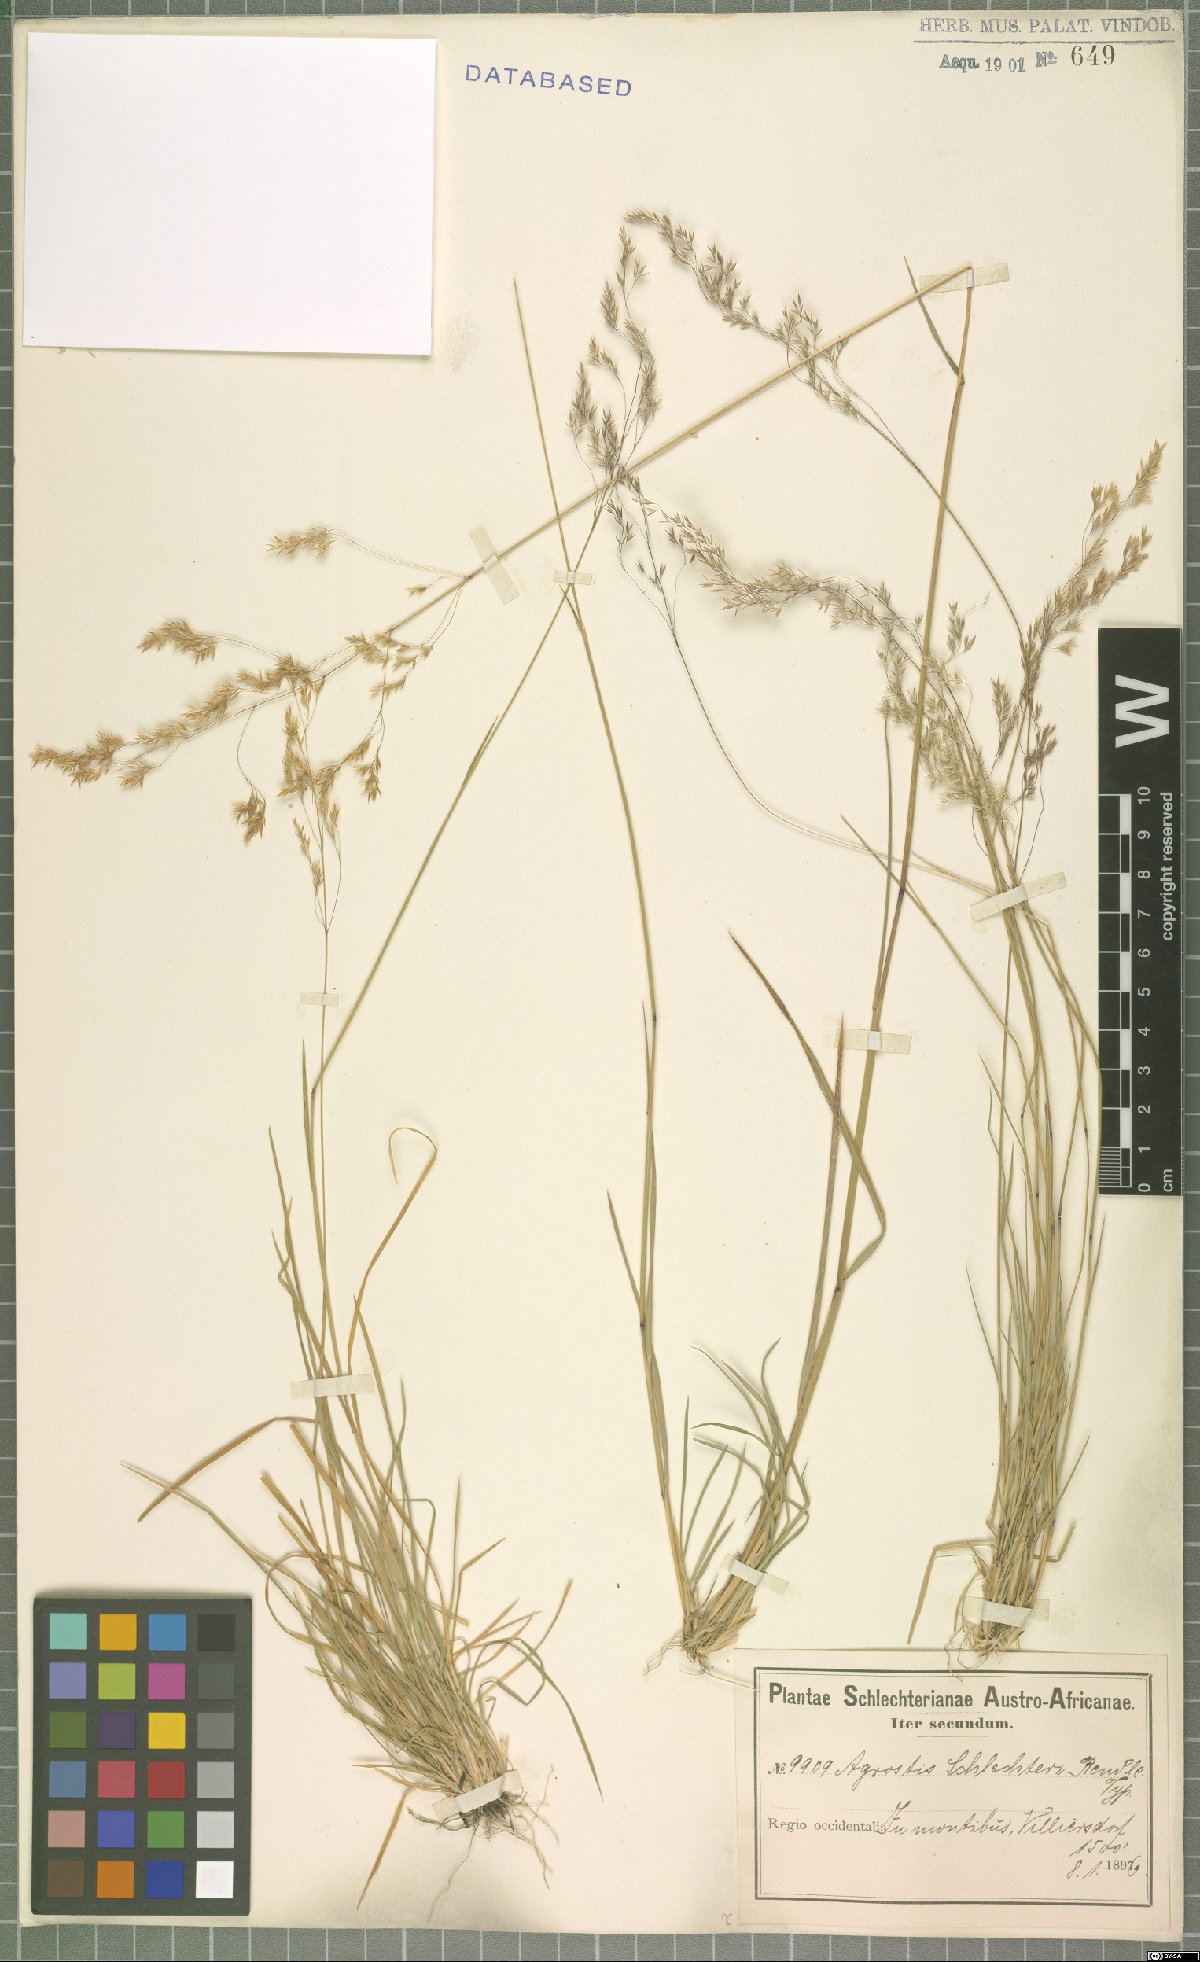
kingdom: Plantae
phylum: Tracheophyta
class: Liliopsida
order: Poales
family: Poaceae
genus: Lachnagrostis
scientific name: Lachnagrostis schlechteri
